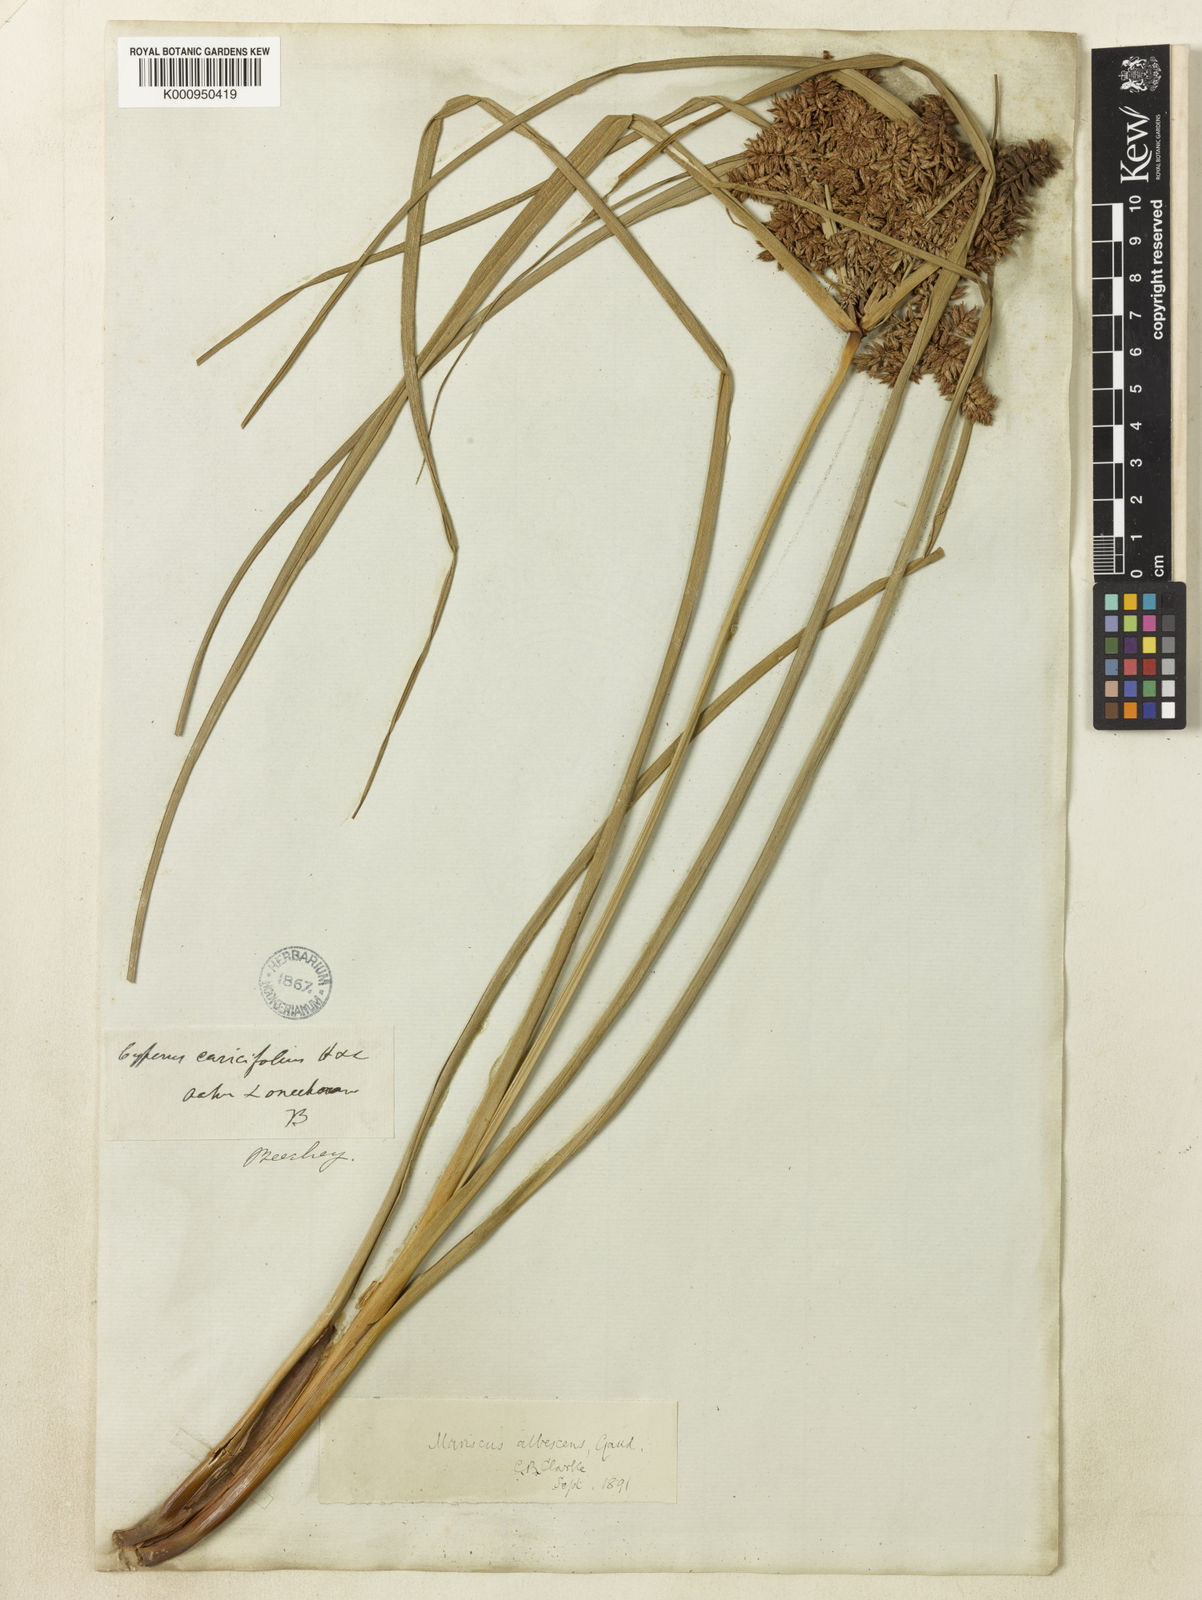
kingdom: Plantae
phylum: Tracheophyta
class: Liliopsida
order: Poales
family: Cyperaceae
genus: Cyperus
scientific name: Cyperus javanicus
